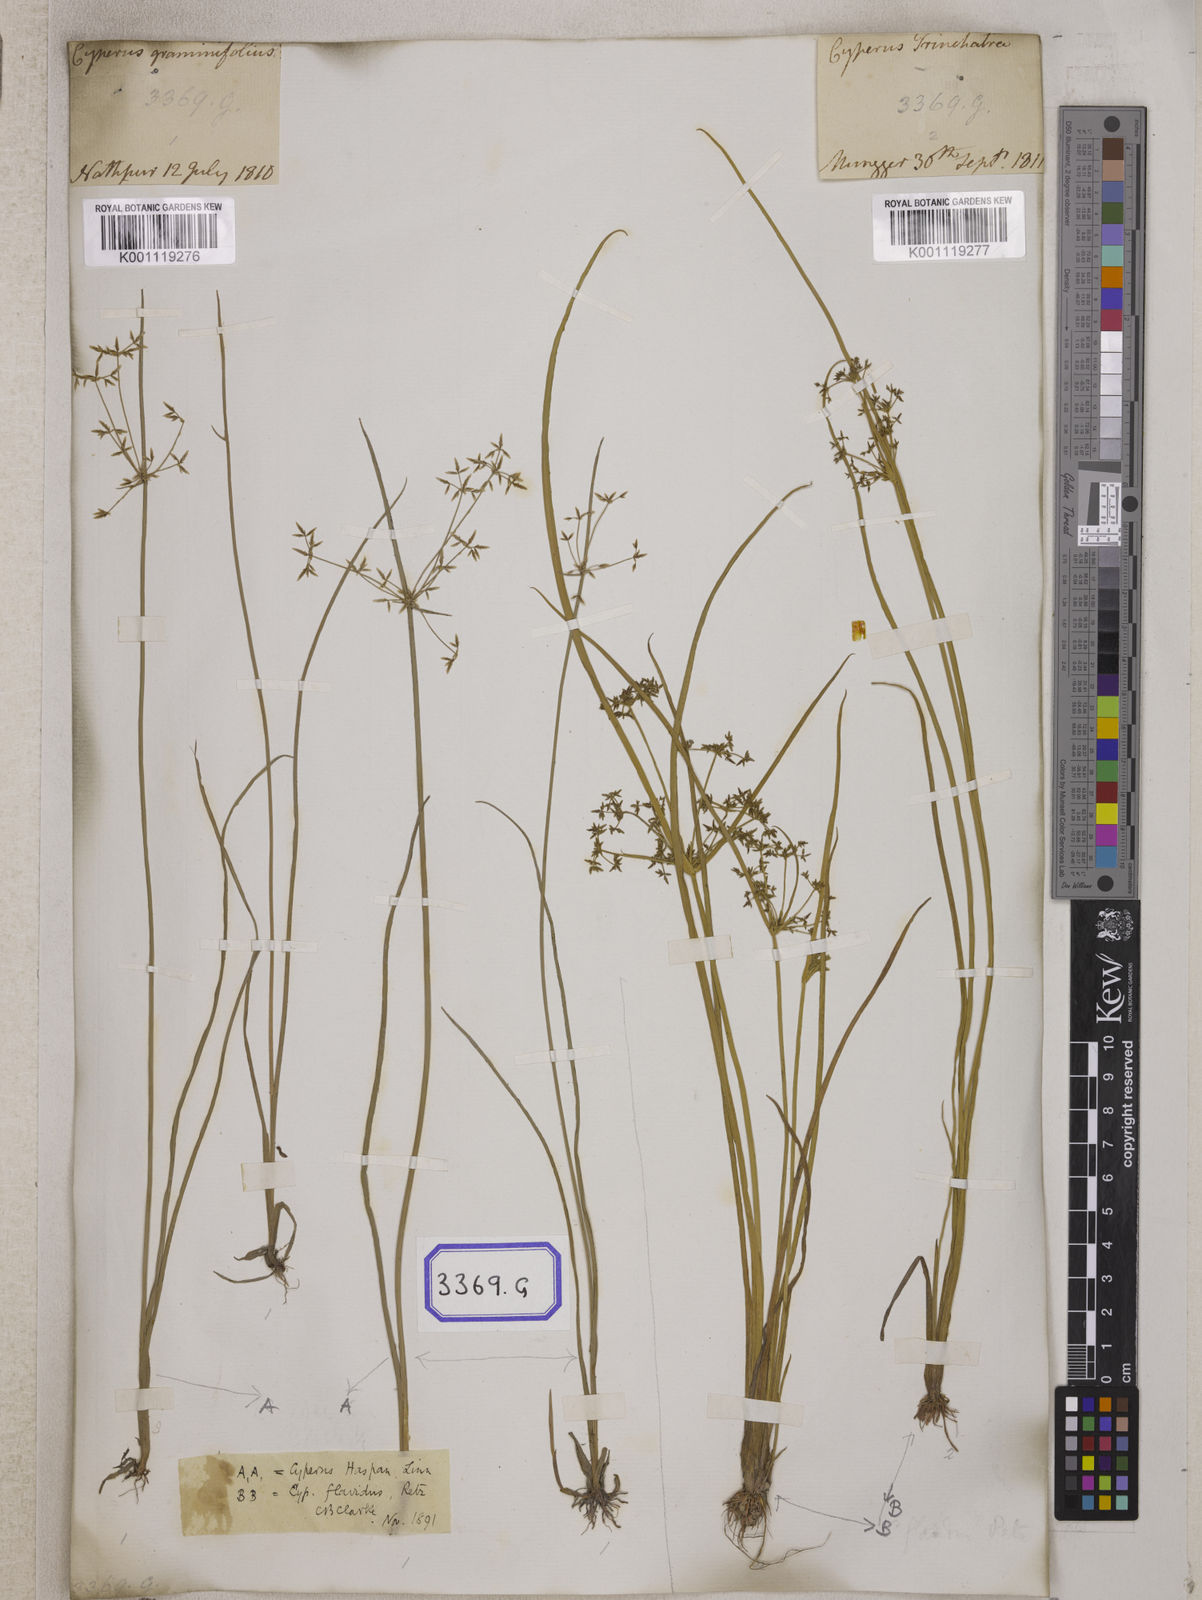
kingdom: Plantae
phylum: Tracheophyta
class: Liliopsida
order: Poales
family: Cyperaceae
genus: Cyperus
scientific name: Cyperus
